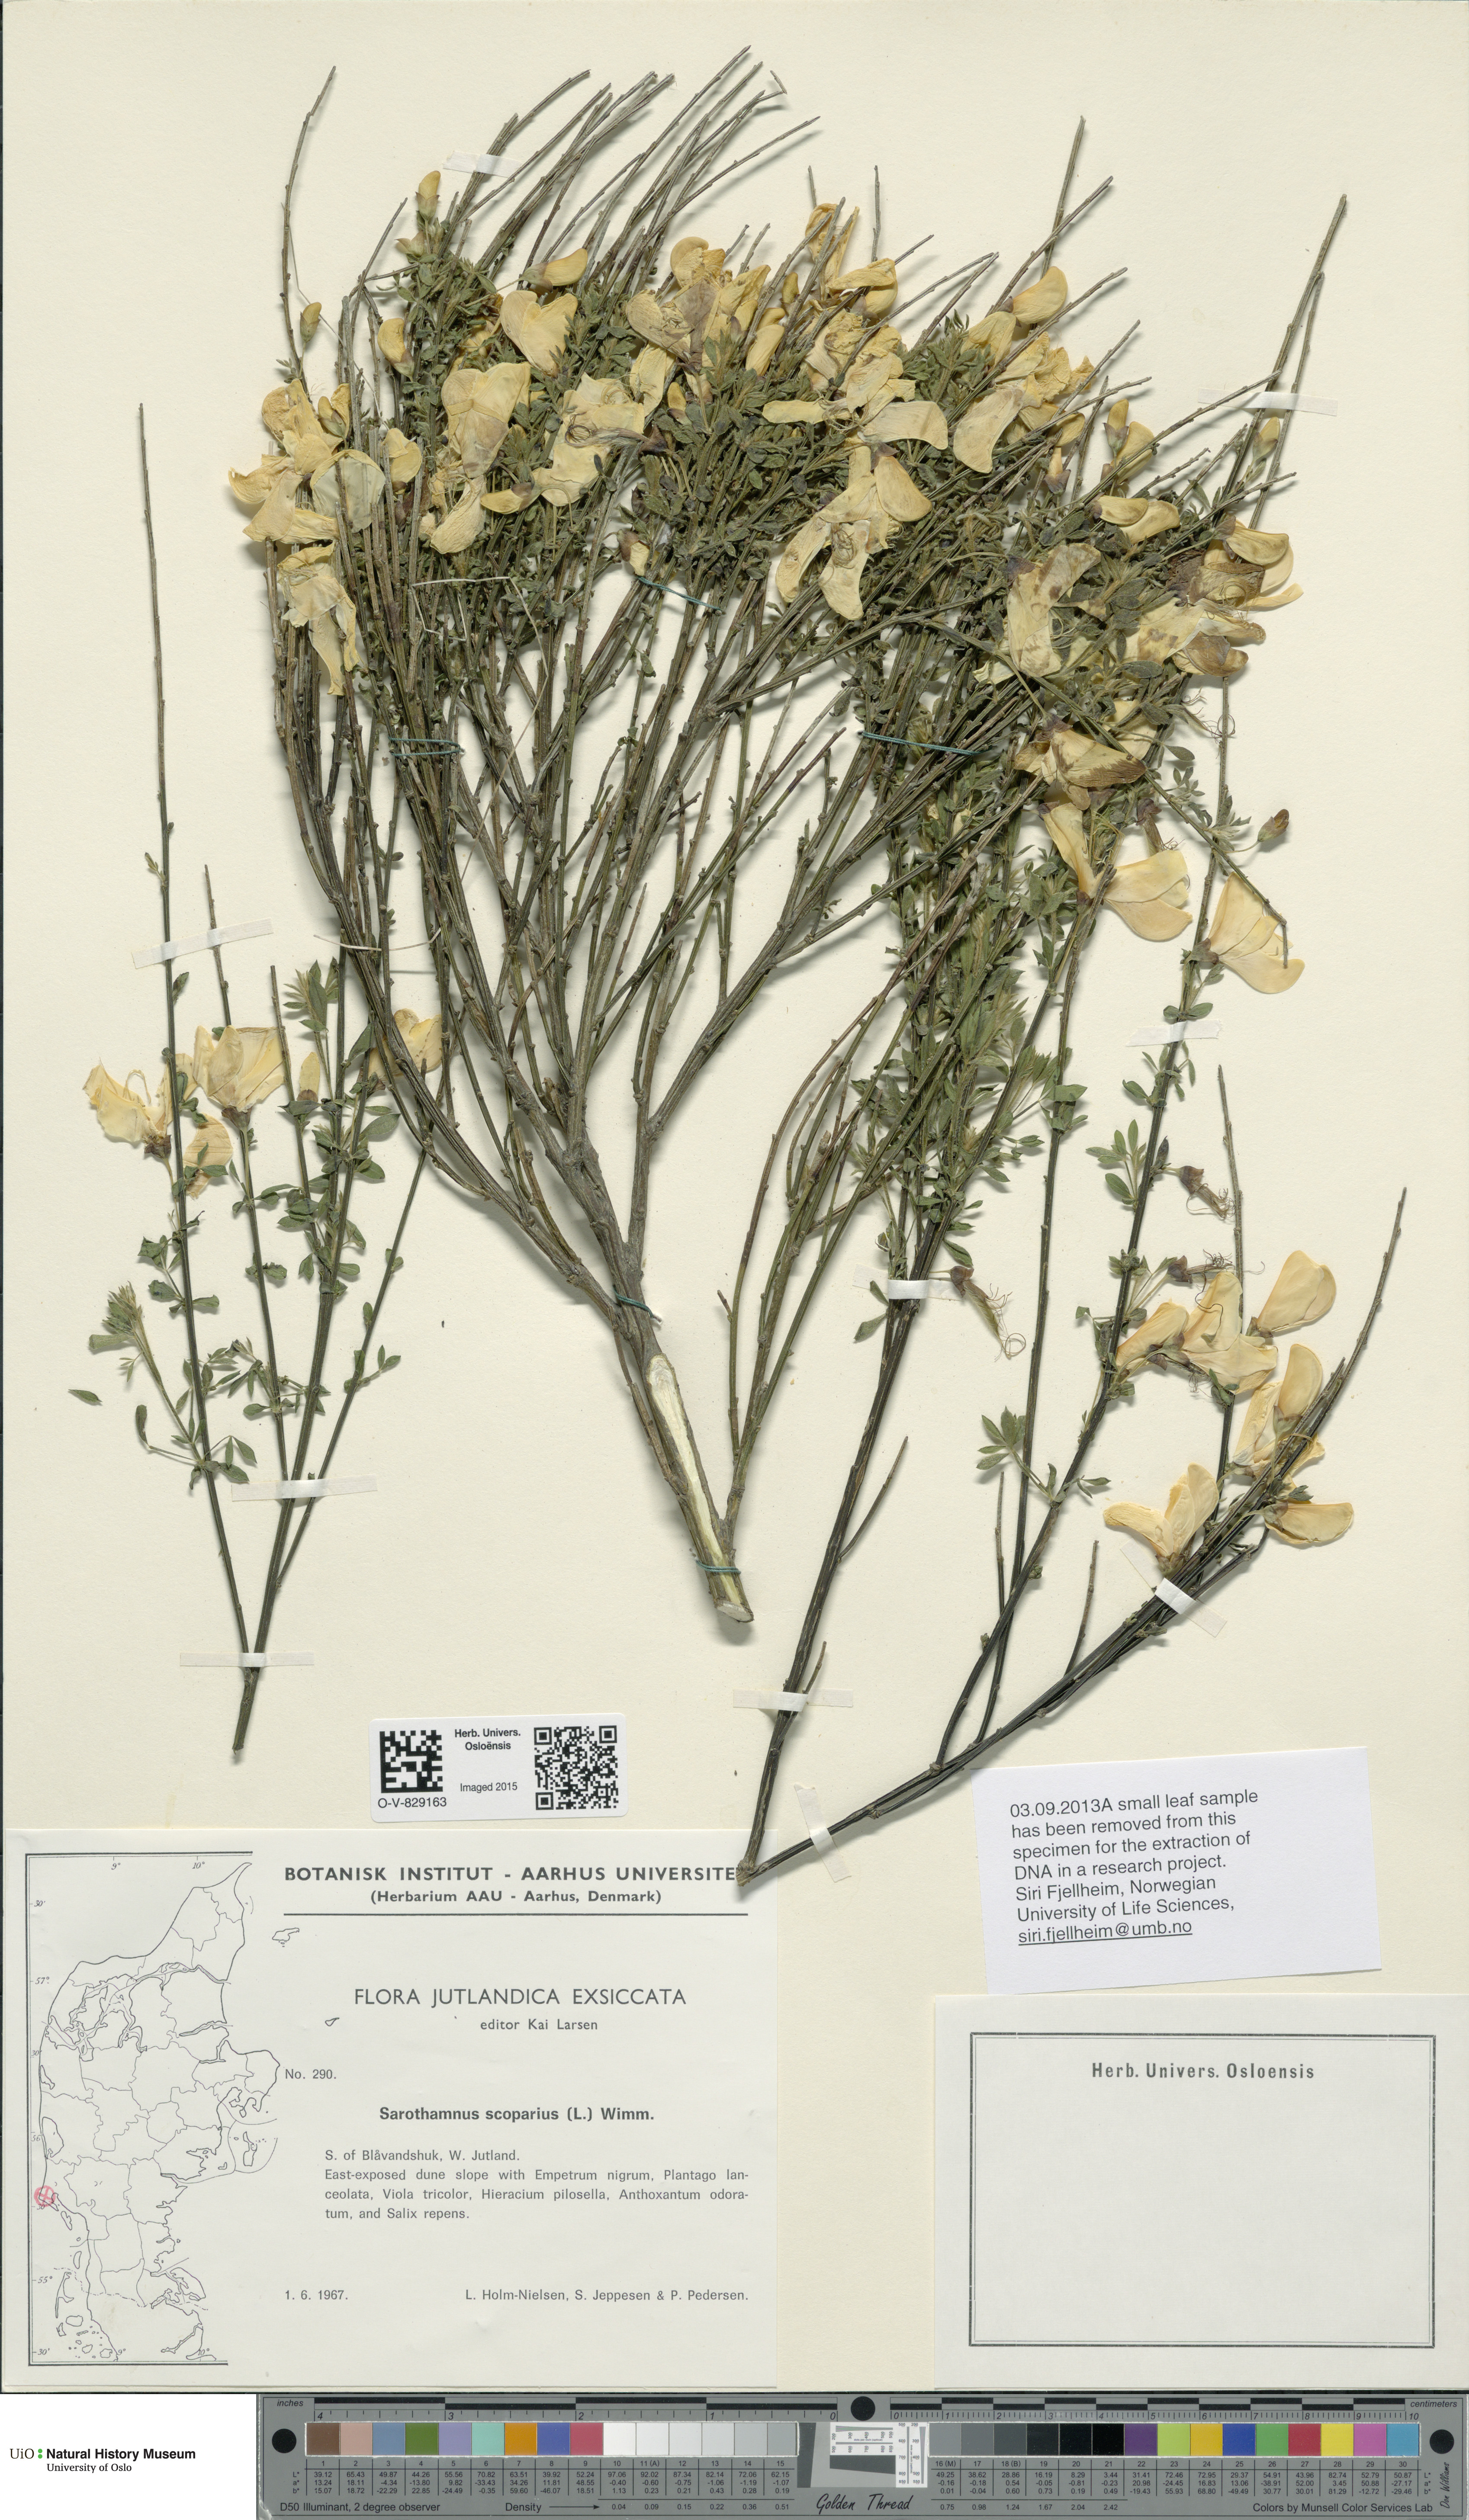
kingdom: Plantae
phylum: Tracheophyta
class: Magnoliopsida
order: Fabales
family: Fabaceae
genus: Cytisus
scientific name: Cytisus scoparius
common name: Scotch broom
